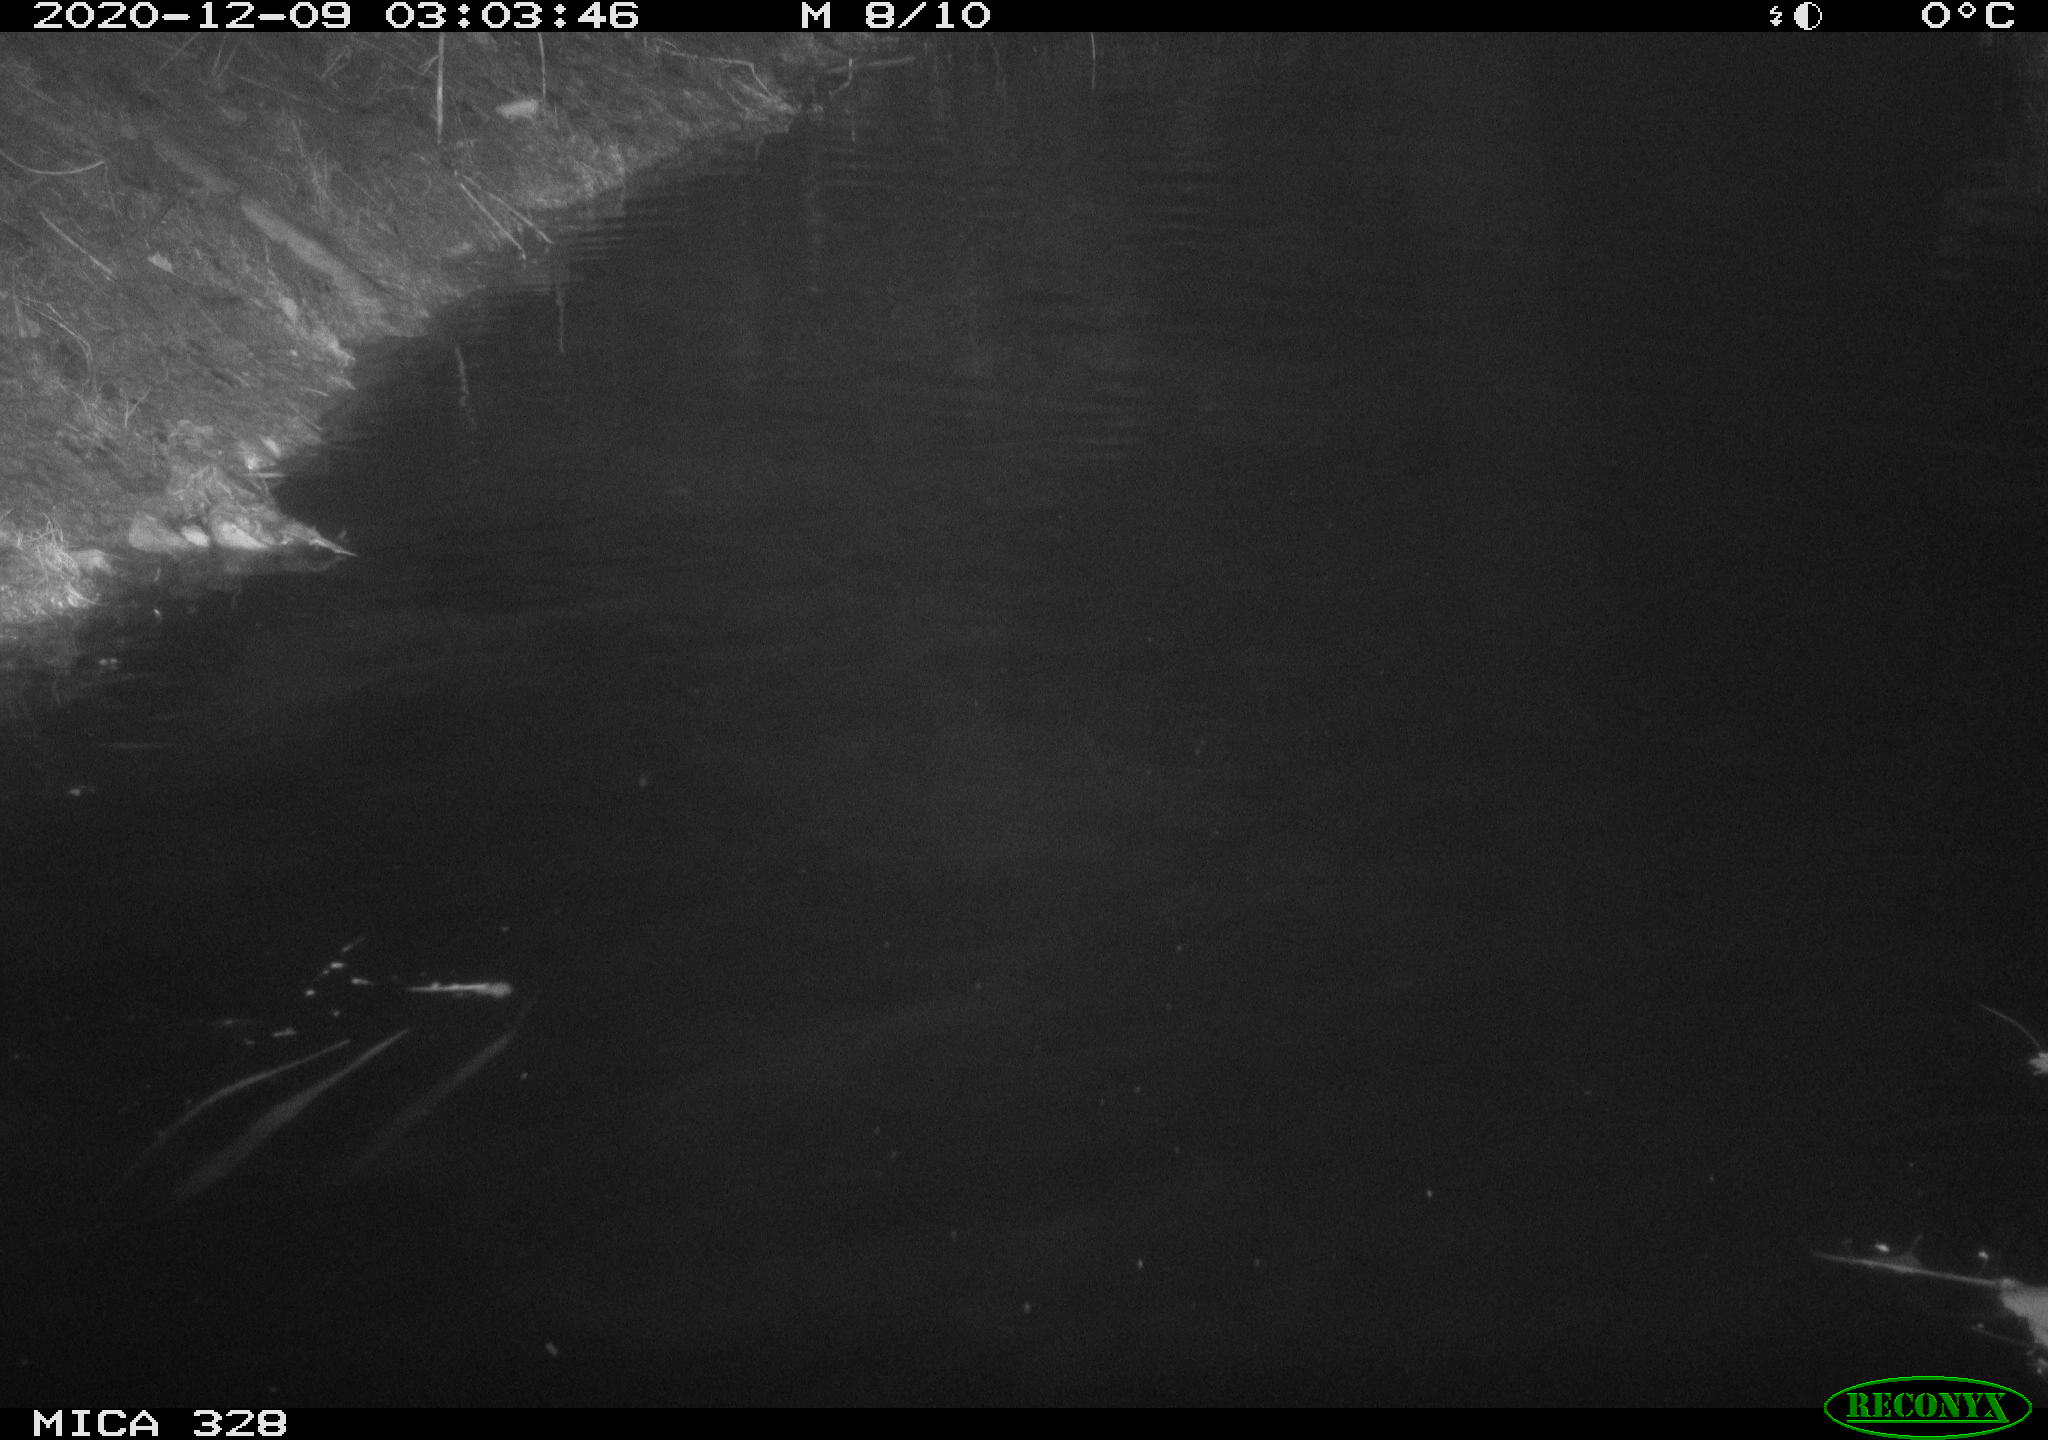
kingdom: Animalia
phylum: Chordata
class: Mammalia
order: Carnivora
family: Mustelidae
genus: Lutra
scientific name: Lutra lutra
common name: European otter
